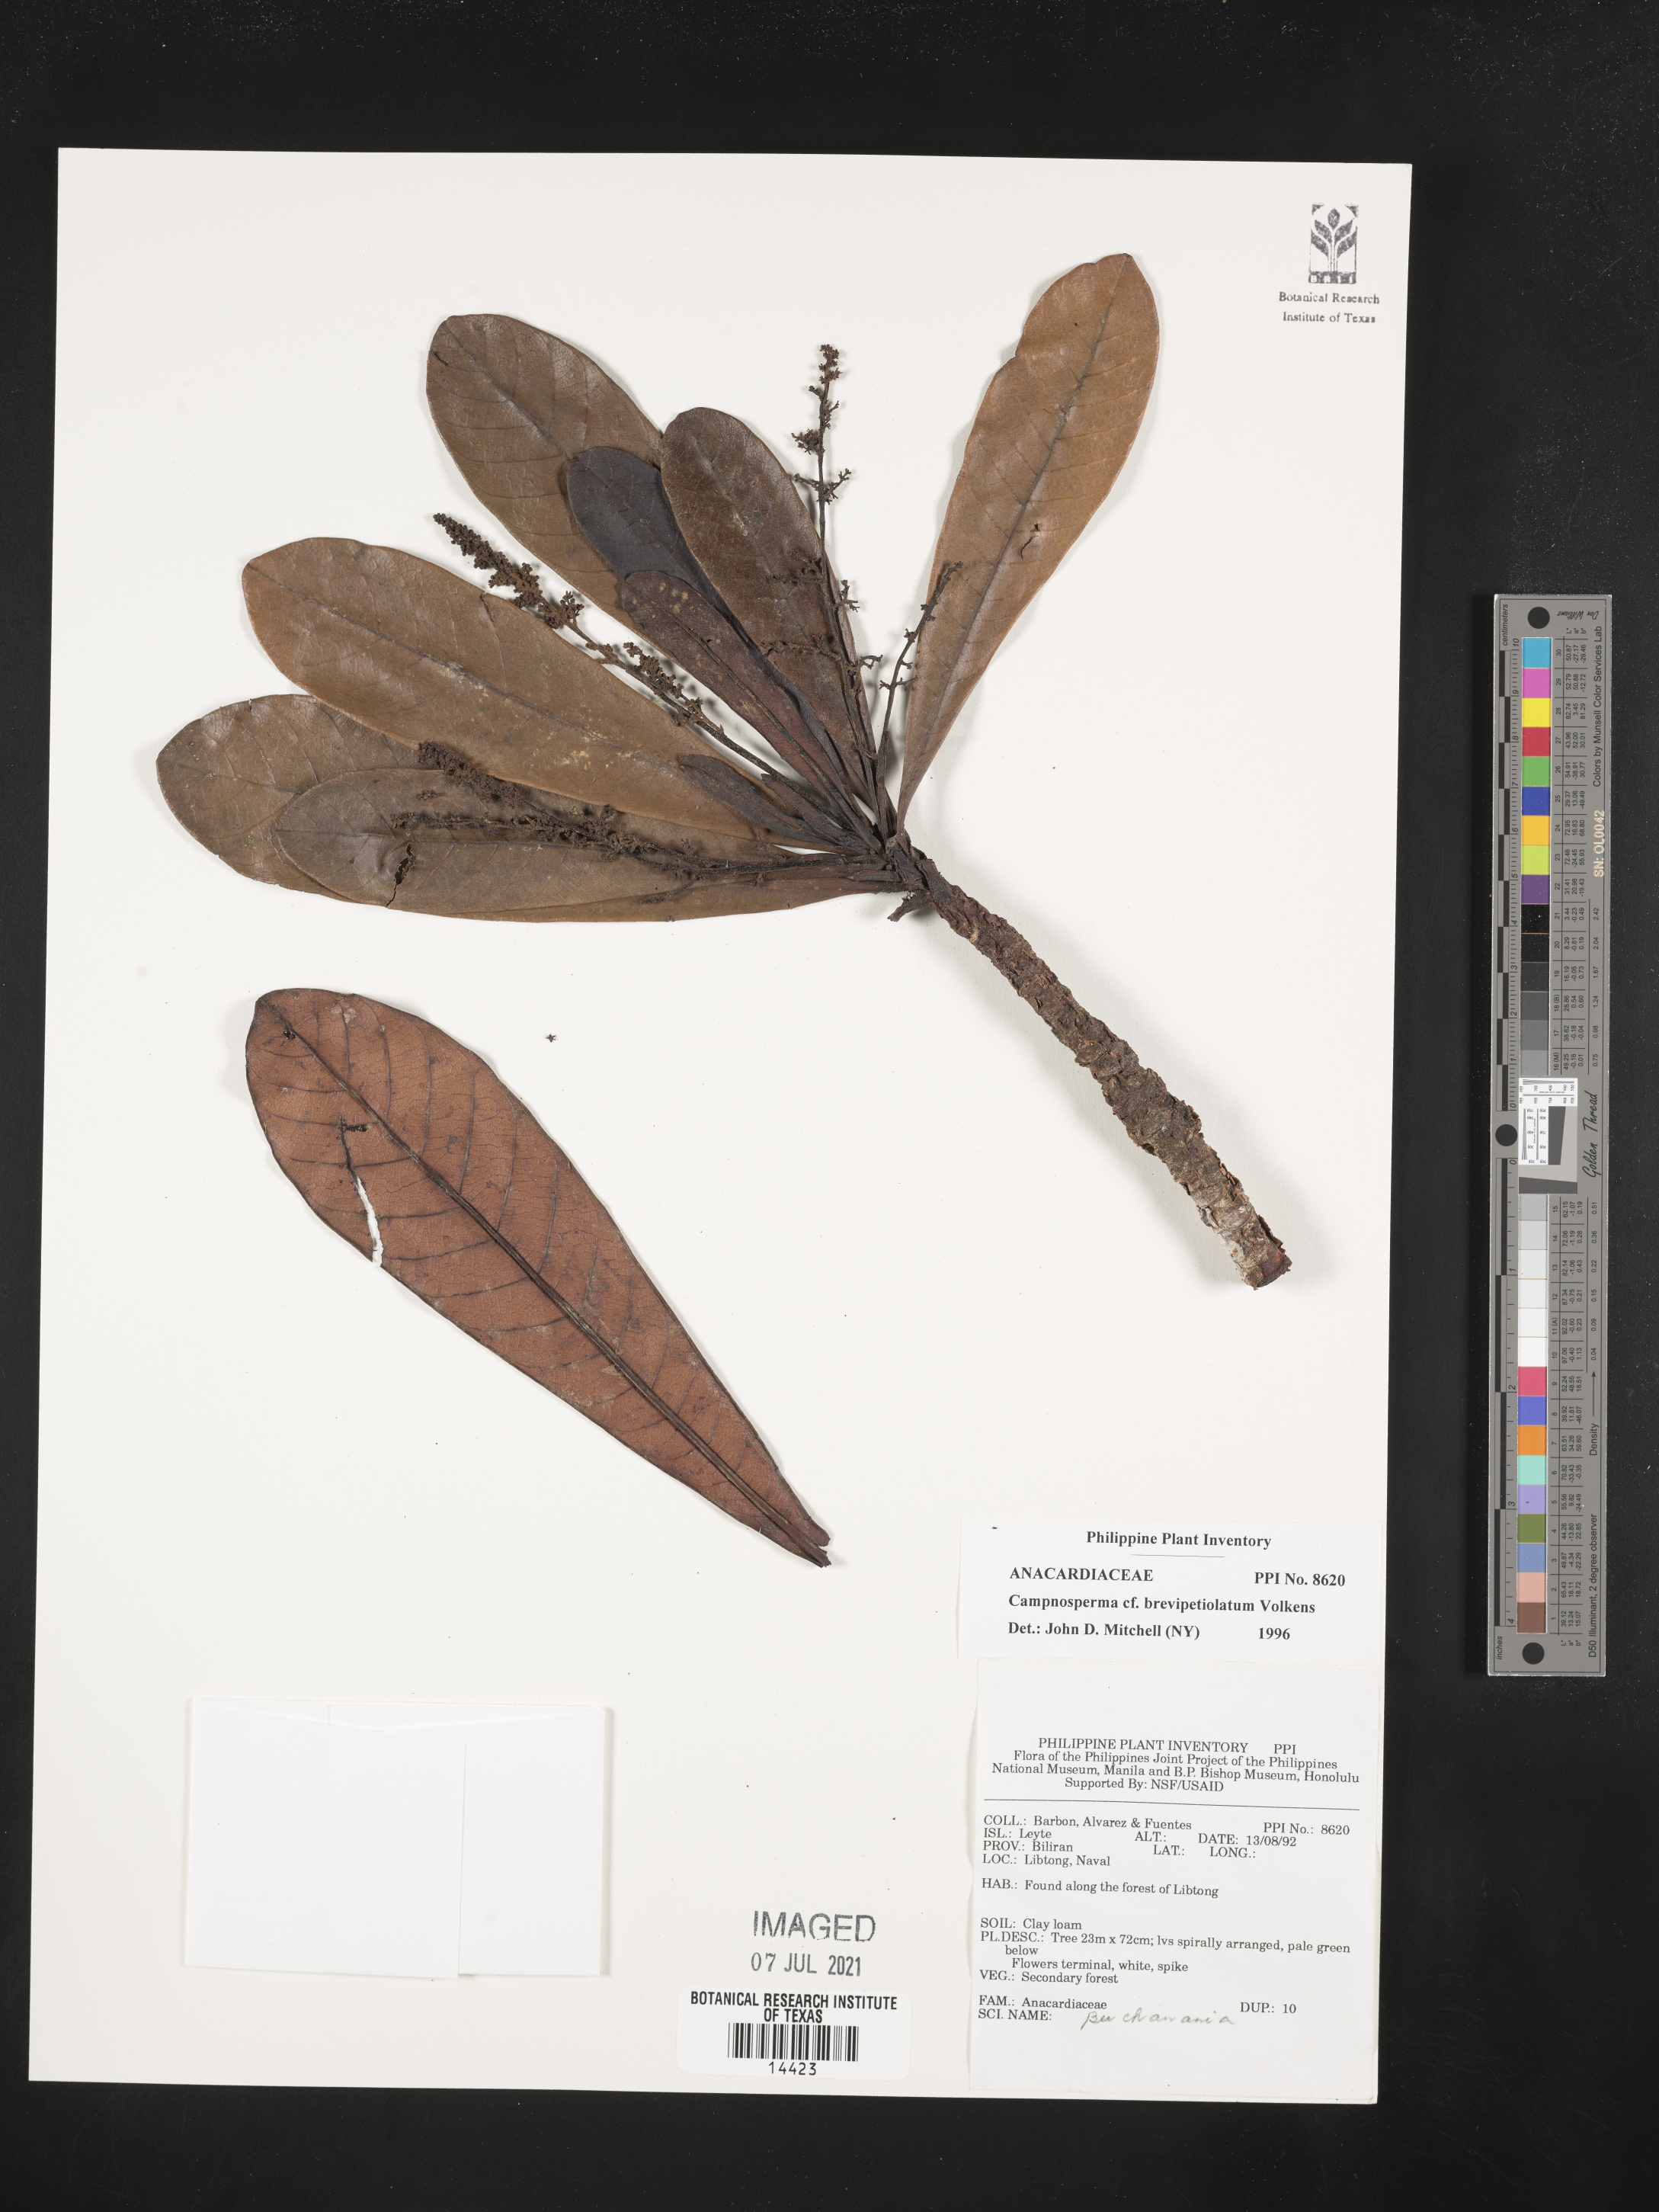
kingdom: Plantae
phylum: Tracheophyta
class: Magnoliopsida
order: Sapindales
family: Anacardiaceae
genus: Campnosperma
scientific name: Campnosperma brevipetiolatum
